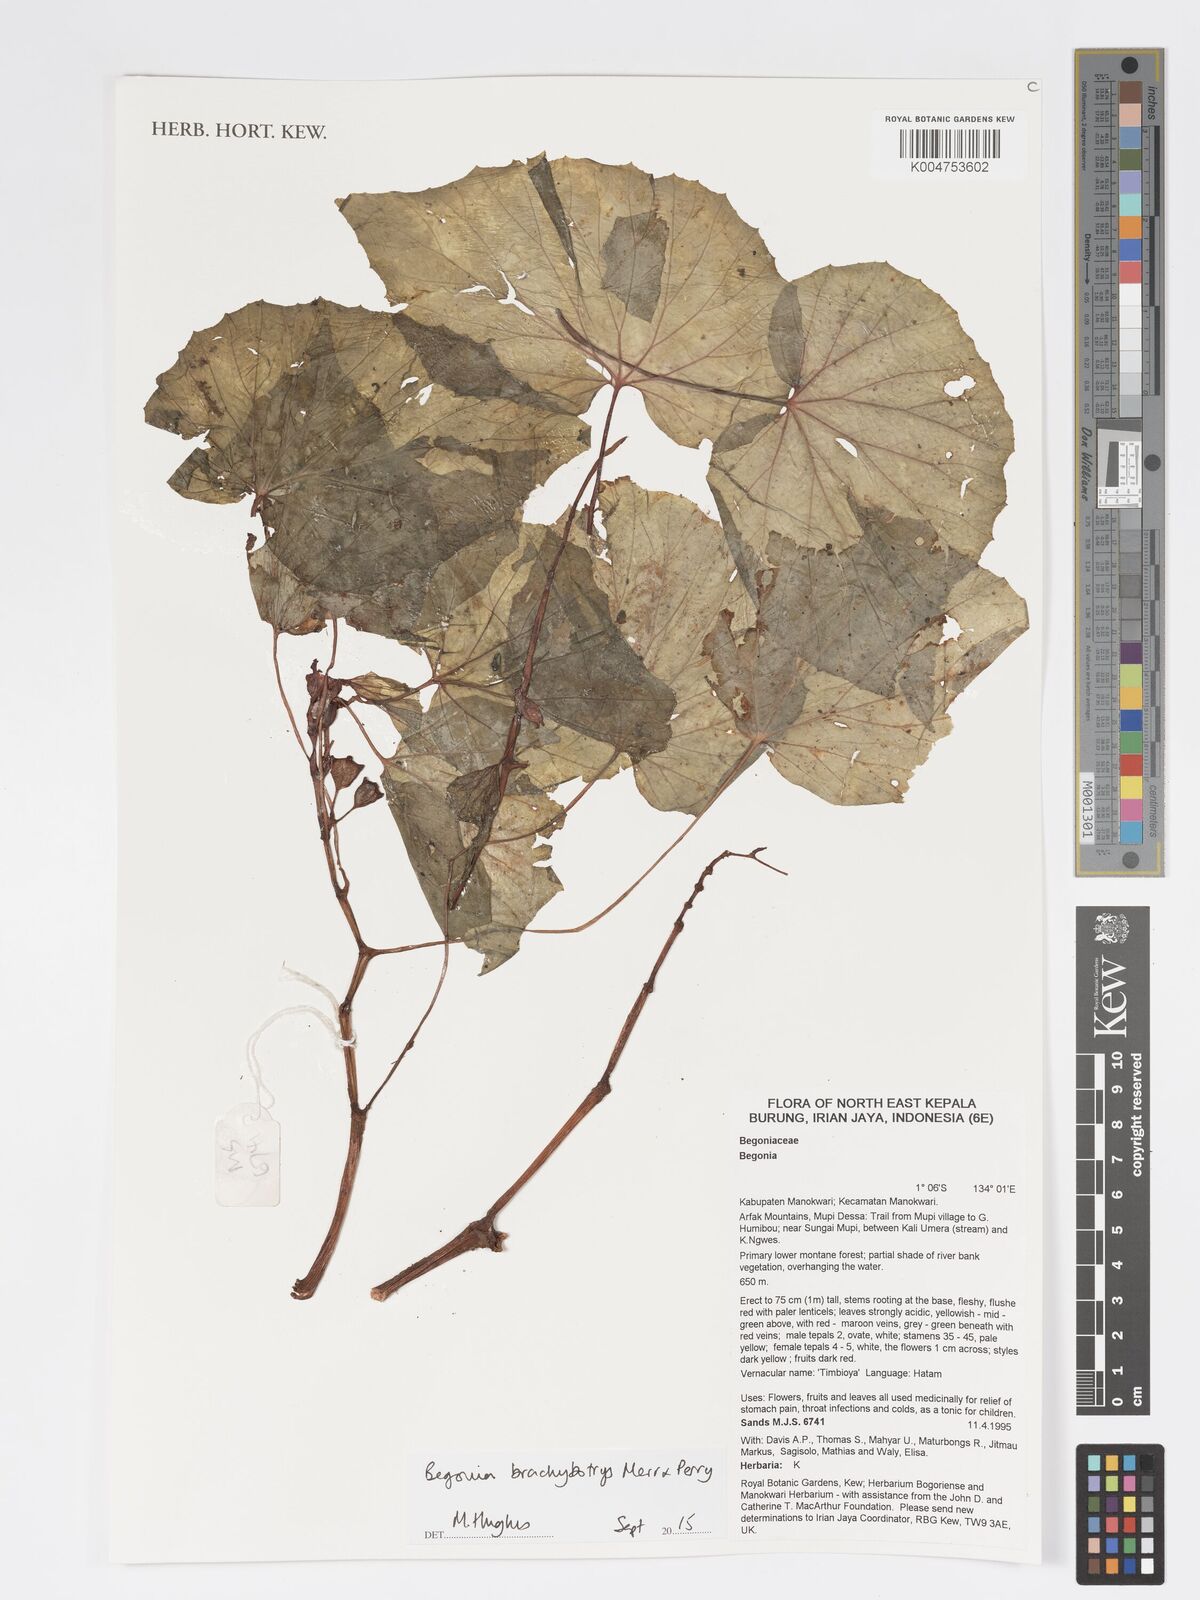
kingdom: Plantae
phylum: Tracheophyta
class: Magnoliopsida
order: Cucurbitales
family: Begoniaceae
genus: Begonia
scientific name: Begonia brachybotrys
